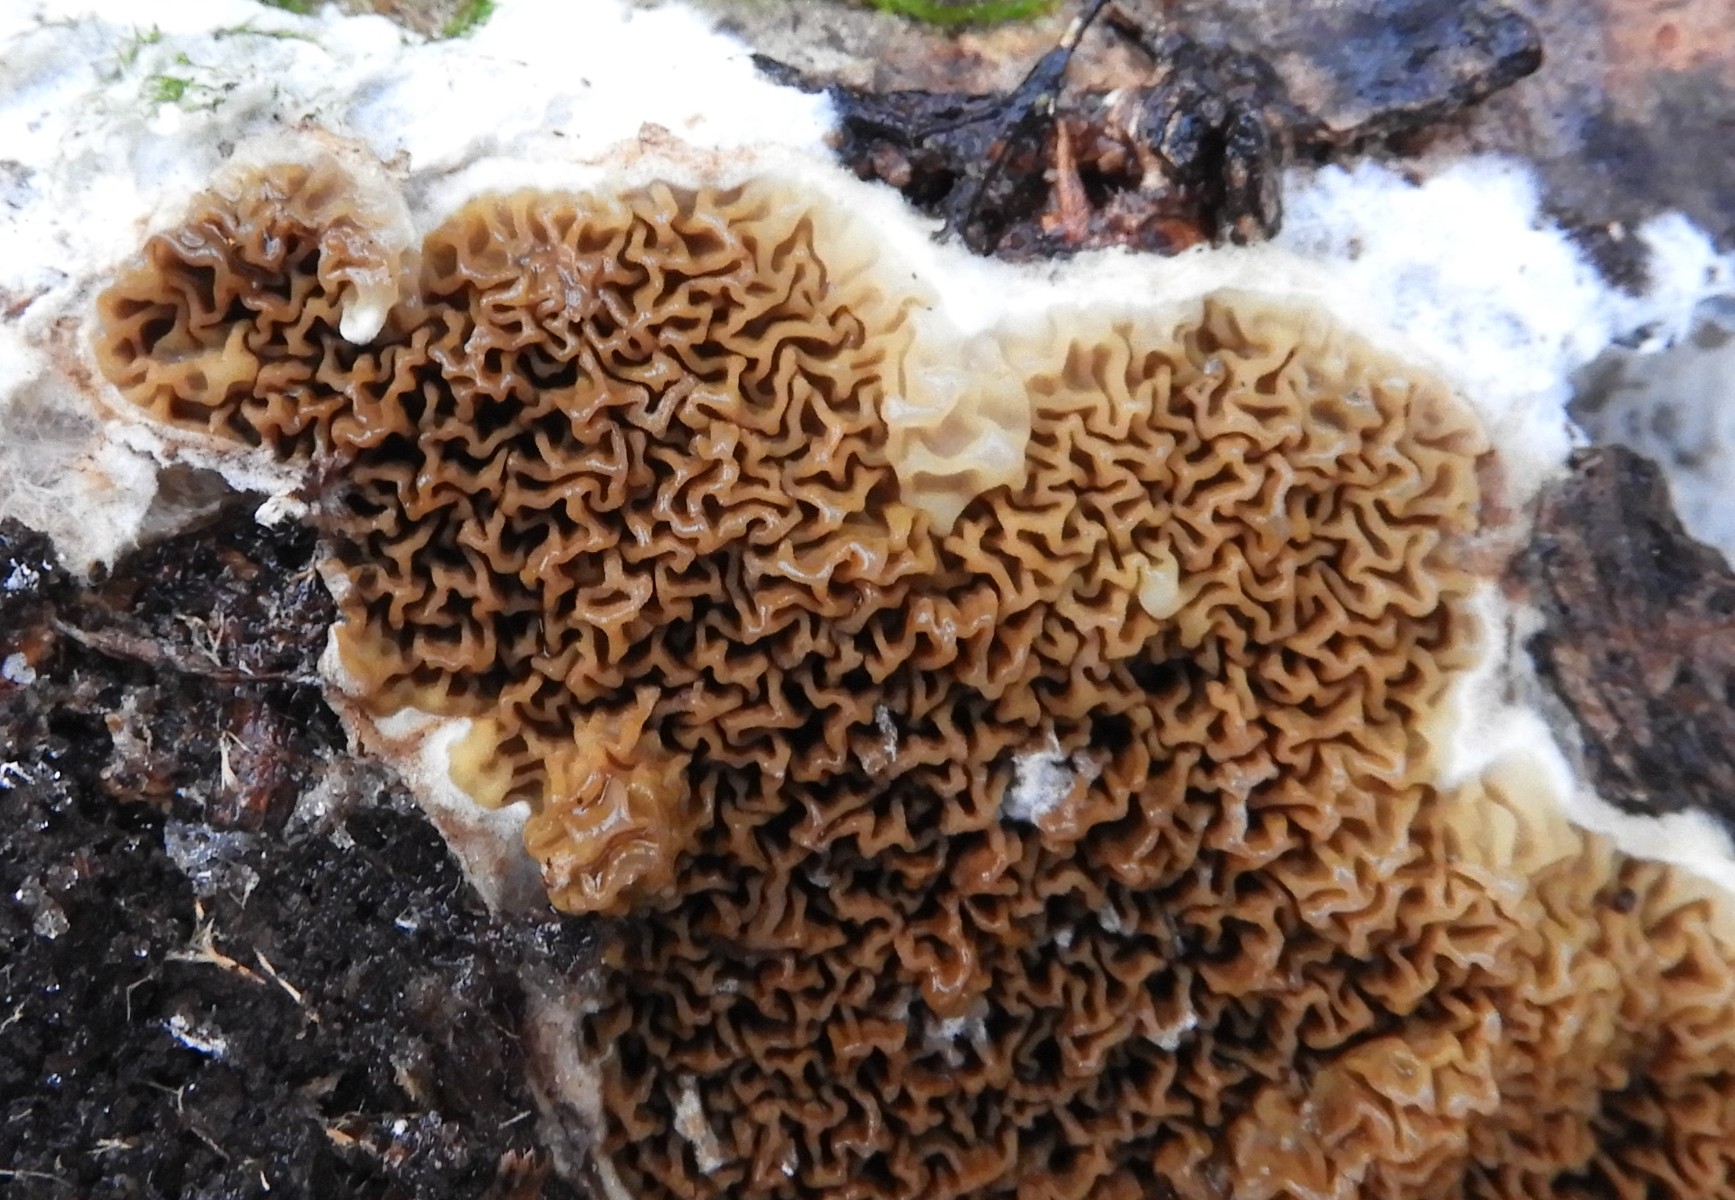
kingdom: Fungi
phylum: Basidiomycota
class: Agaricomycetes
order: Boletales
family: Serpulaceae
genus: Serpula
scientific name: Serpula himantioides
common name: tyndkødet hussvamp
